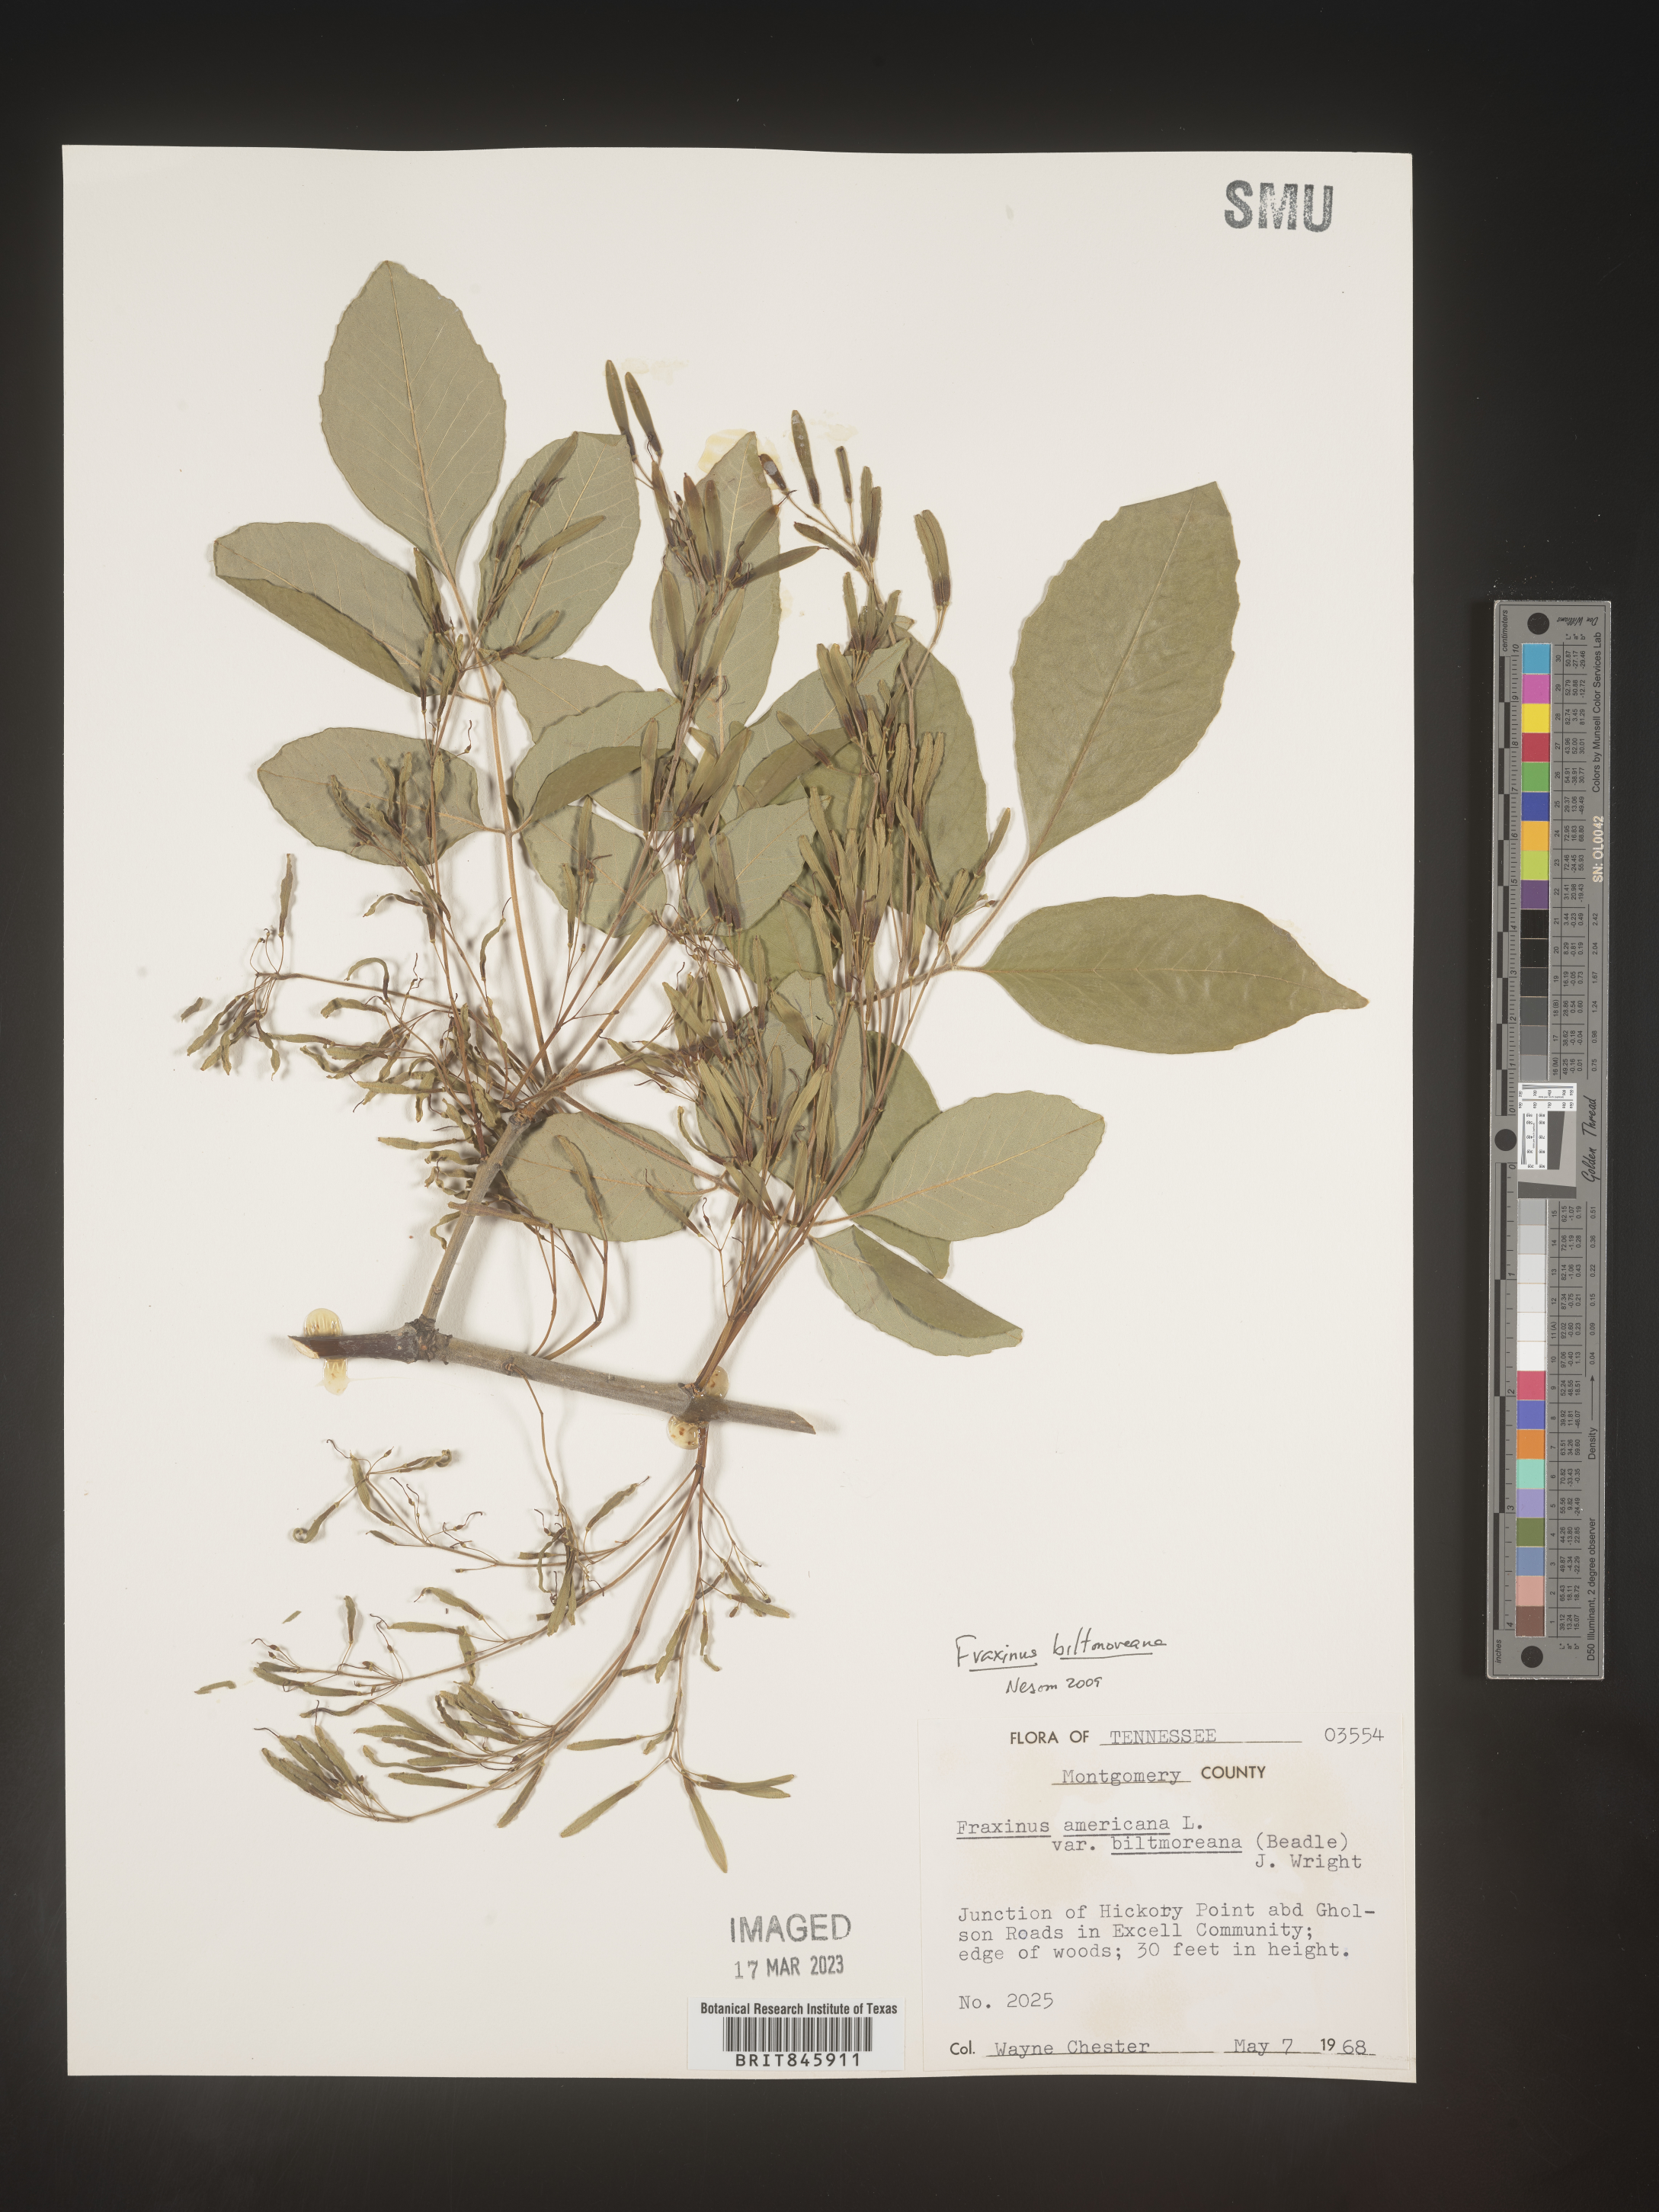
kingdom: Plantae
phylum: Tracheophyta
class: Magnoliopsida
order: Lamiales
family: Oleaceae
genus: Fraxinus
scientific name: Fraxinus americana
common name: White ash
